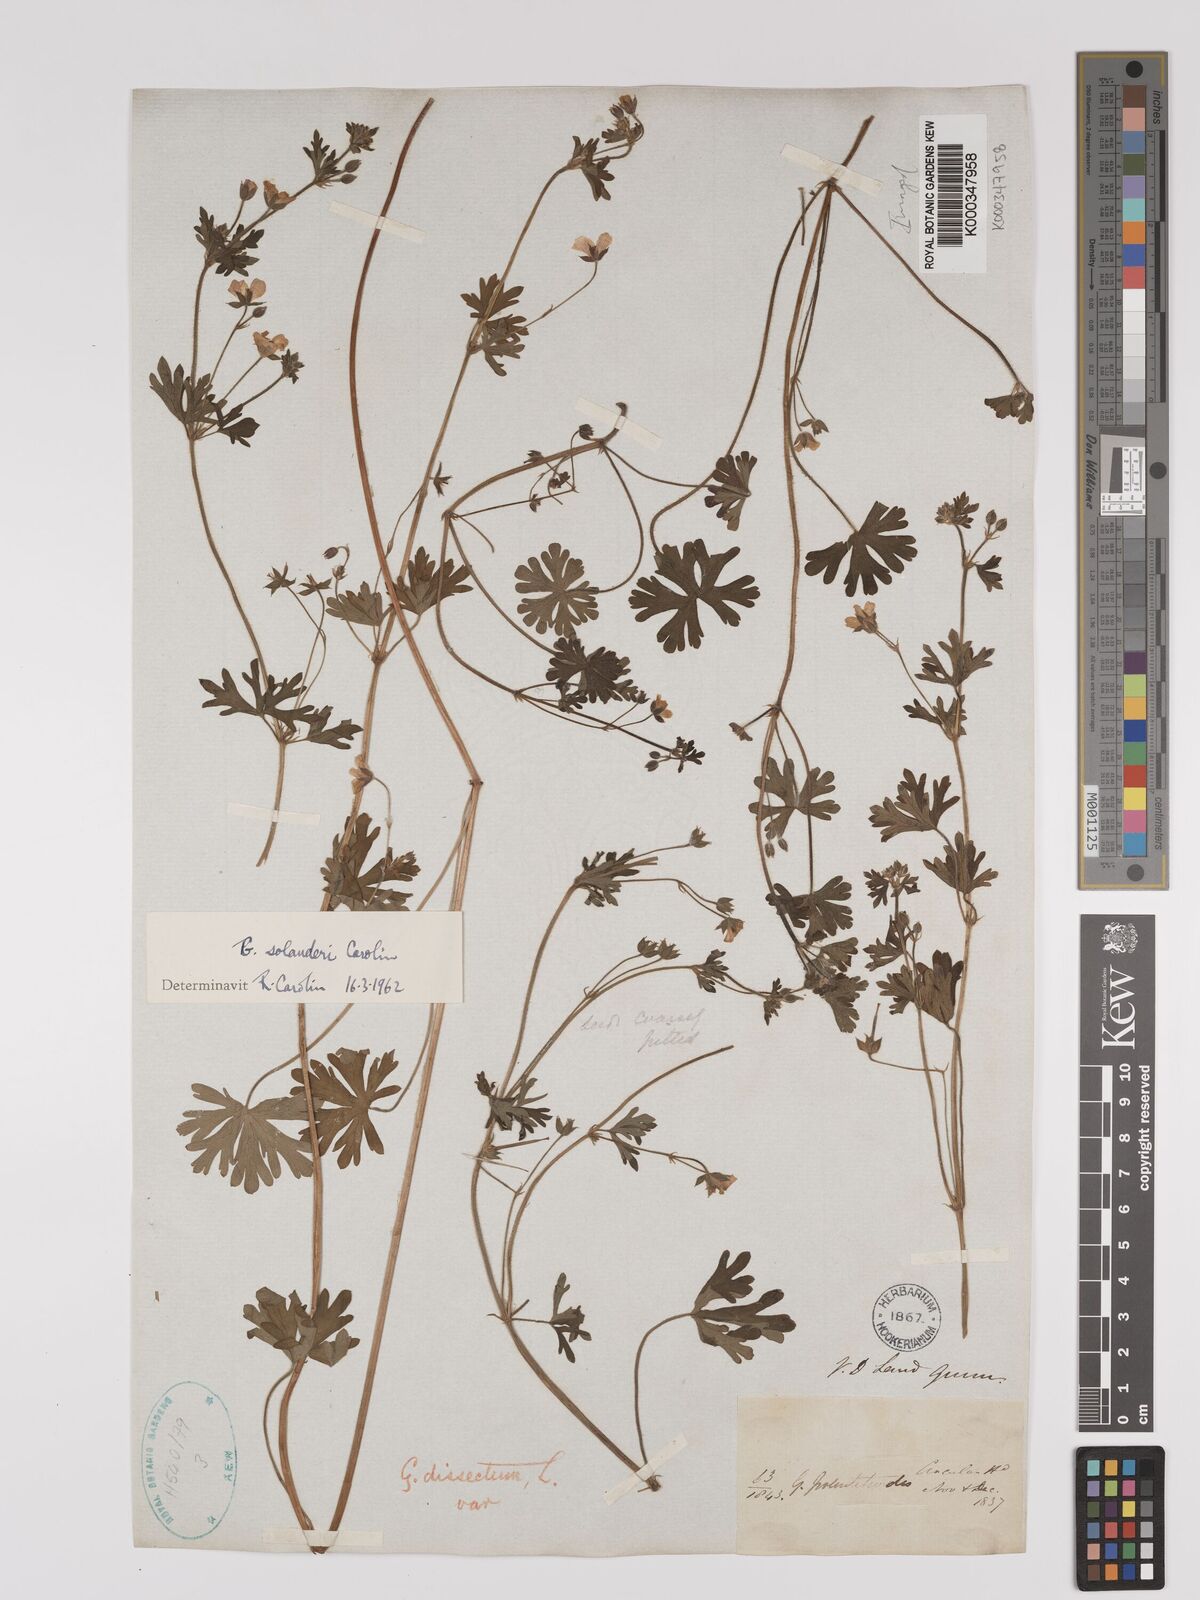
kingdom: Plantae
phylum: Tracheophyta
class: Magnoliopsida
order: Geraniales
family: Geraniaceae
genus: Geranium
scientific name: Geranium solanderi
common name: Solander's geranium
